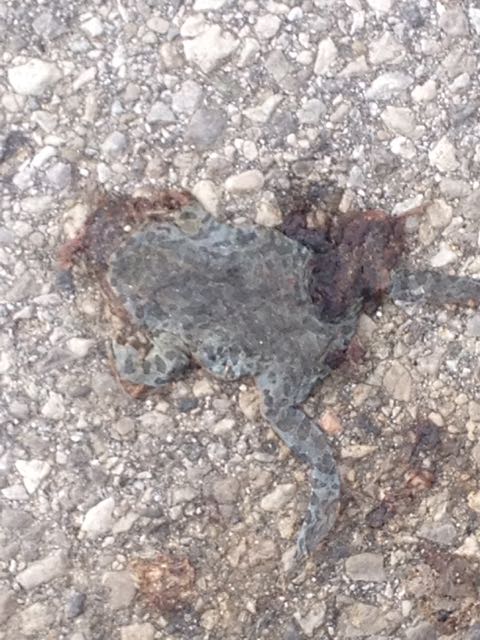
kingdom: Animalia
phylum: Chordata
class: Amphibia
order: Anura
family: Bufonidae
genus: Bufotes
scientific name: Bufotes viridis
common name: European green toad
